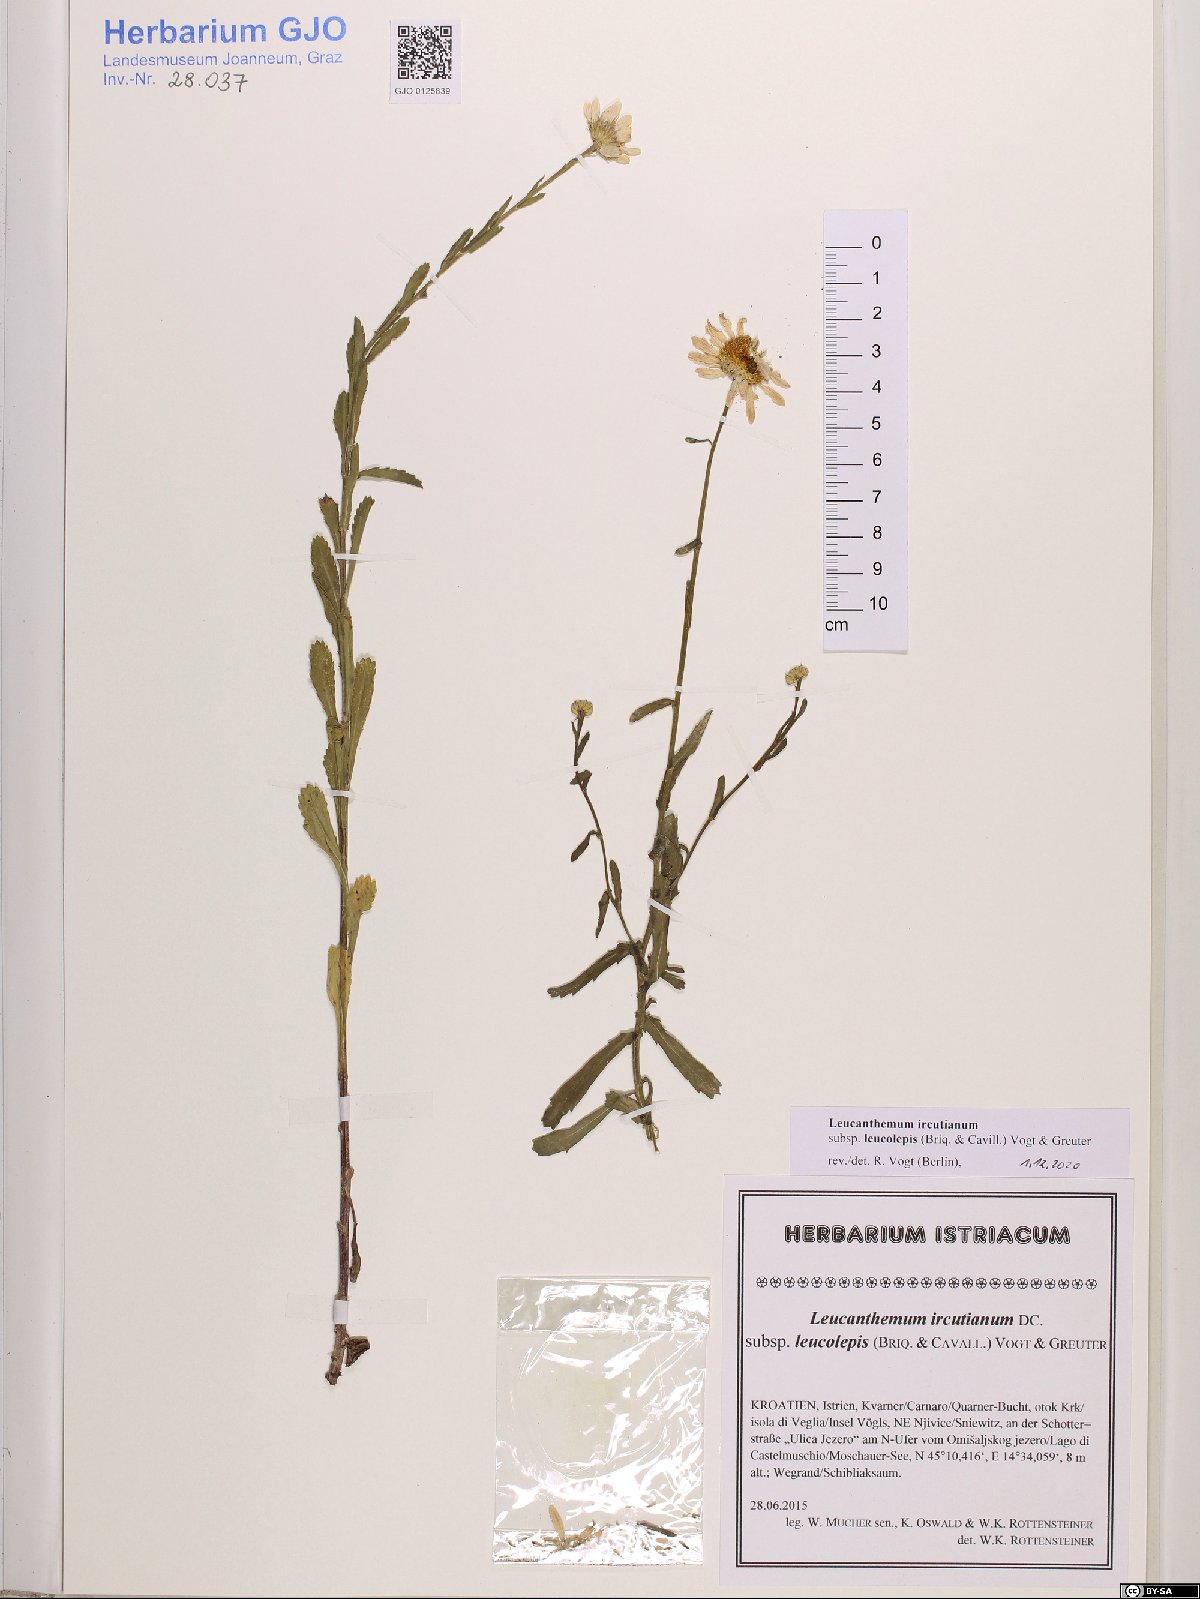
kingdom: Plantae
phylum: Tracheophyta
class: Magnoliopsida
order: Asterales
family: Asteraceae
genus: Leucanthemum
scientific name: Leucanthemum ircutianum
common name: Daisy
